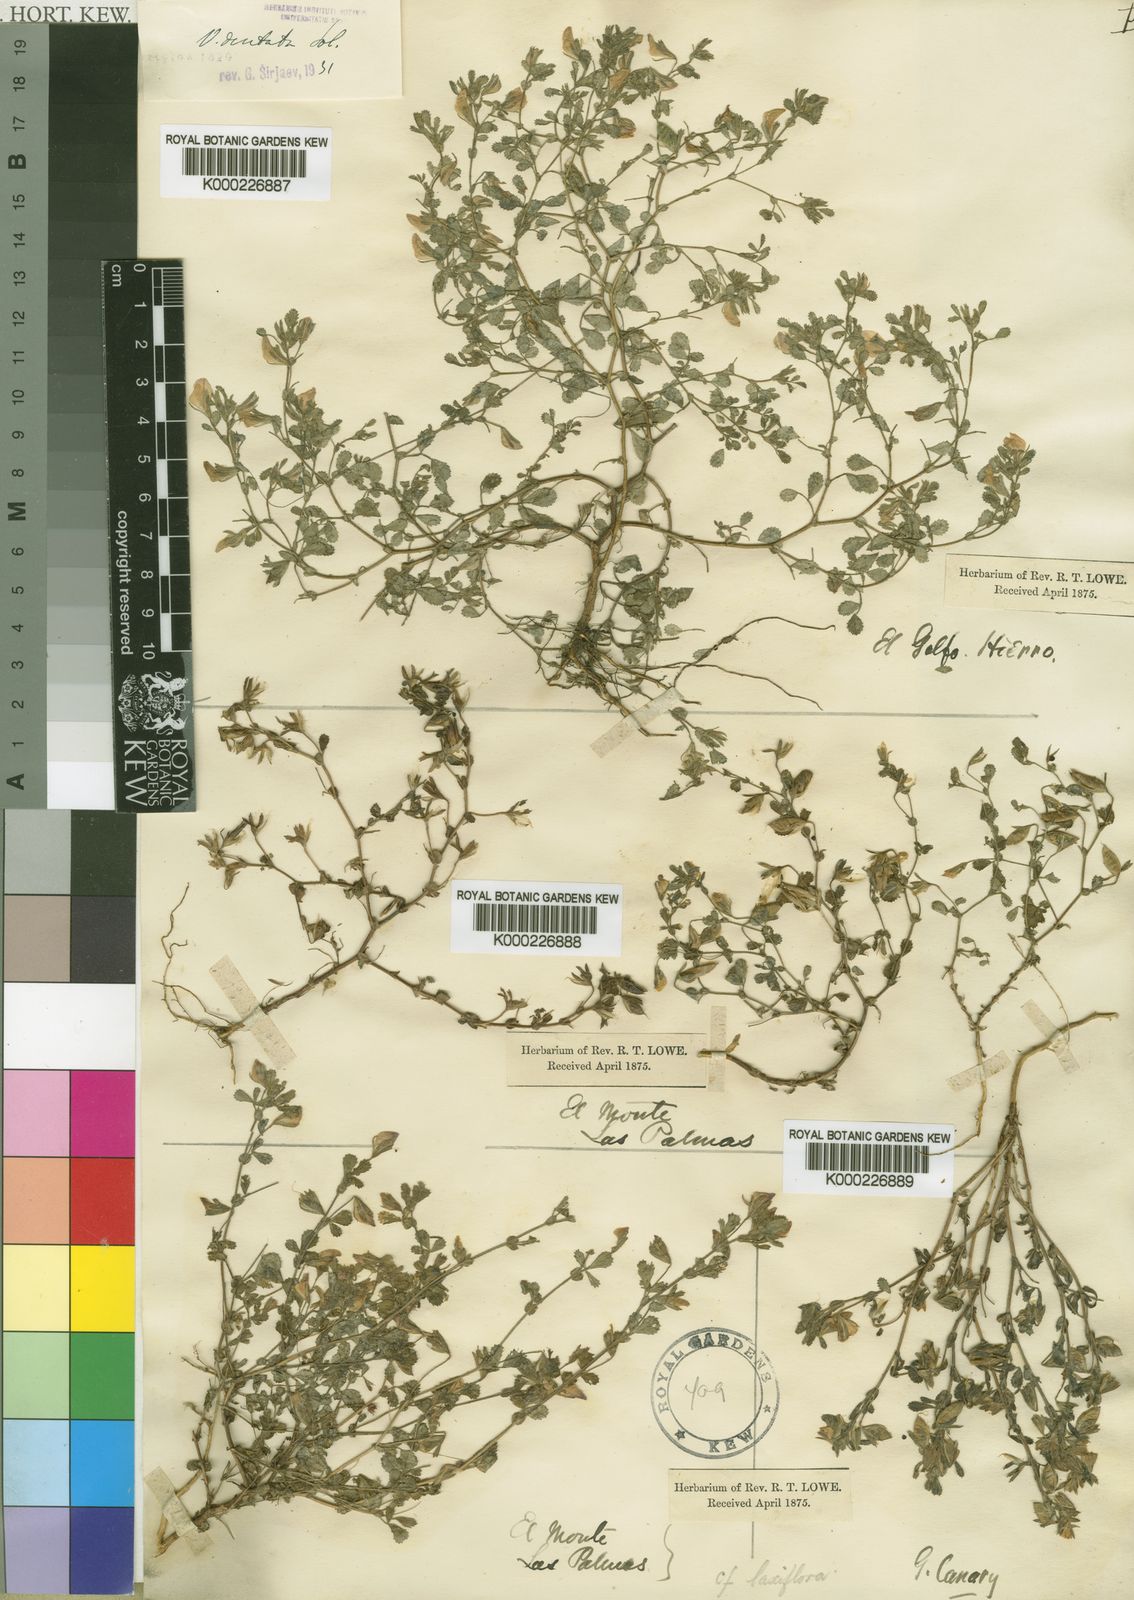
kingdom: Plantae
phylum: Tracheophyta
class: Magnoliopsida
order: Fabales
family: Fabaceae
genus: Ononis
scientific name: Ononis
